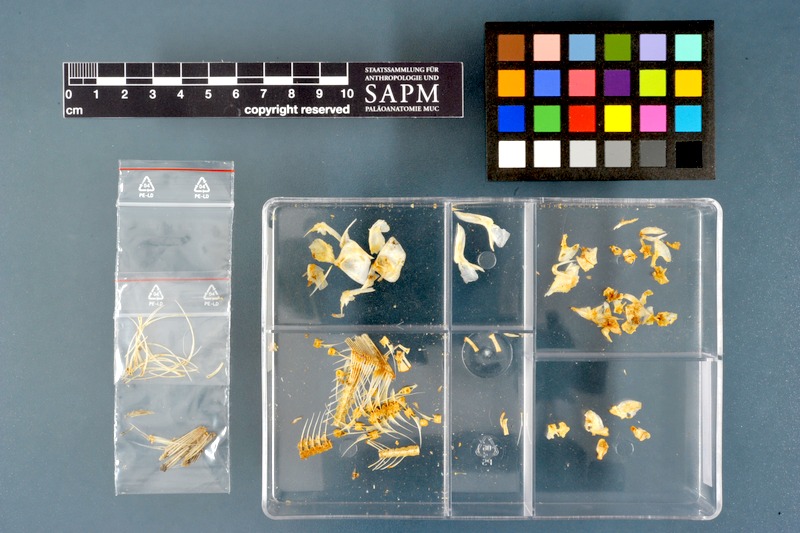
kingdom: Animalia
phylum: Chordata
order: Osteoglossiformes
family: Mormyridae
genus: Marcusenius
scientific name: Marcusenius cyprinoides
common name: Trunkfish
